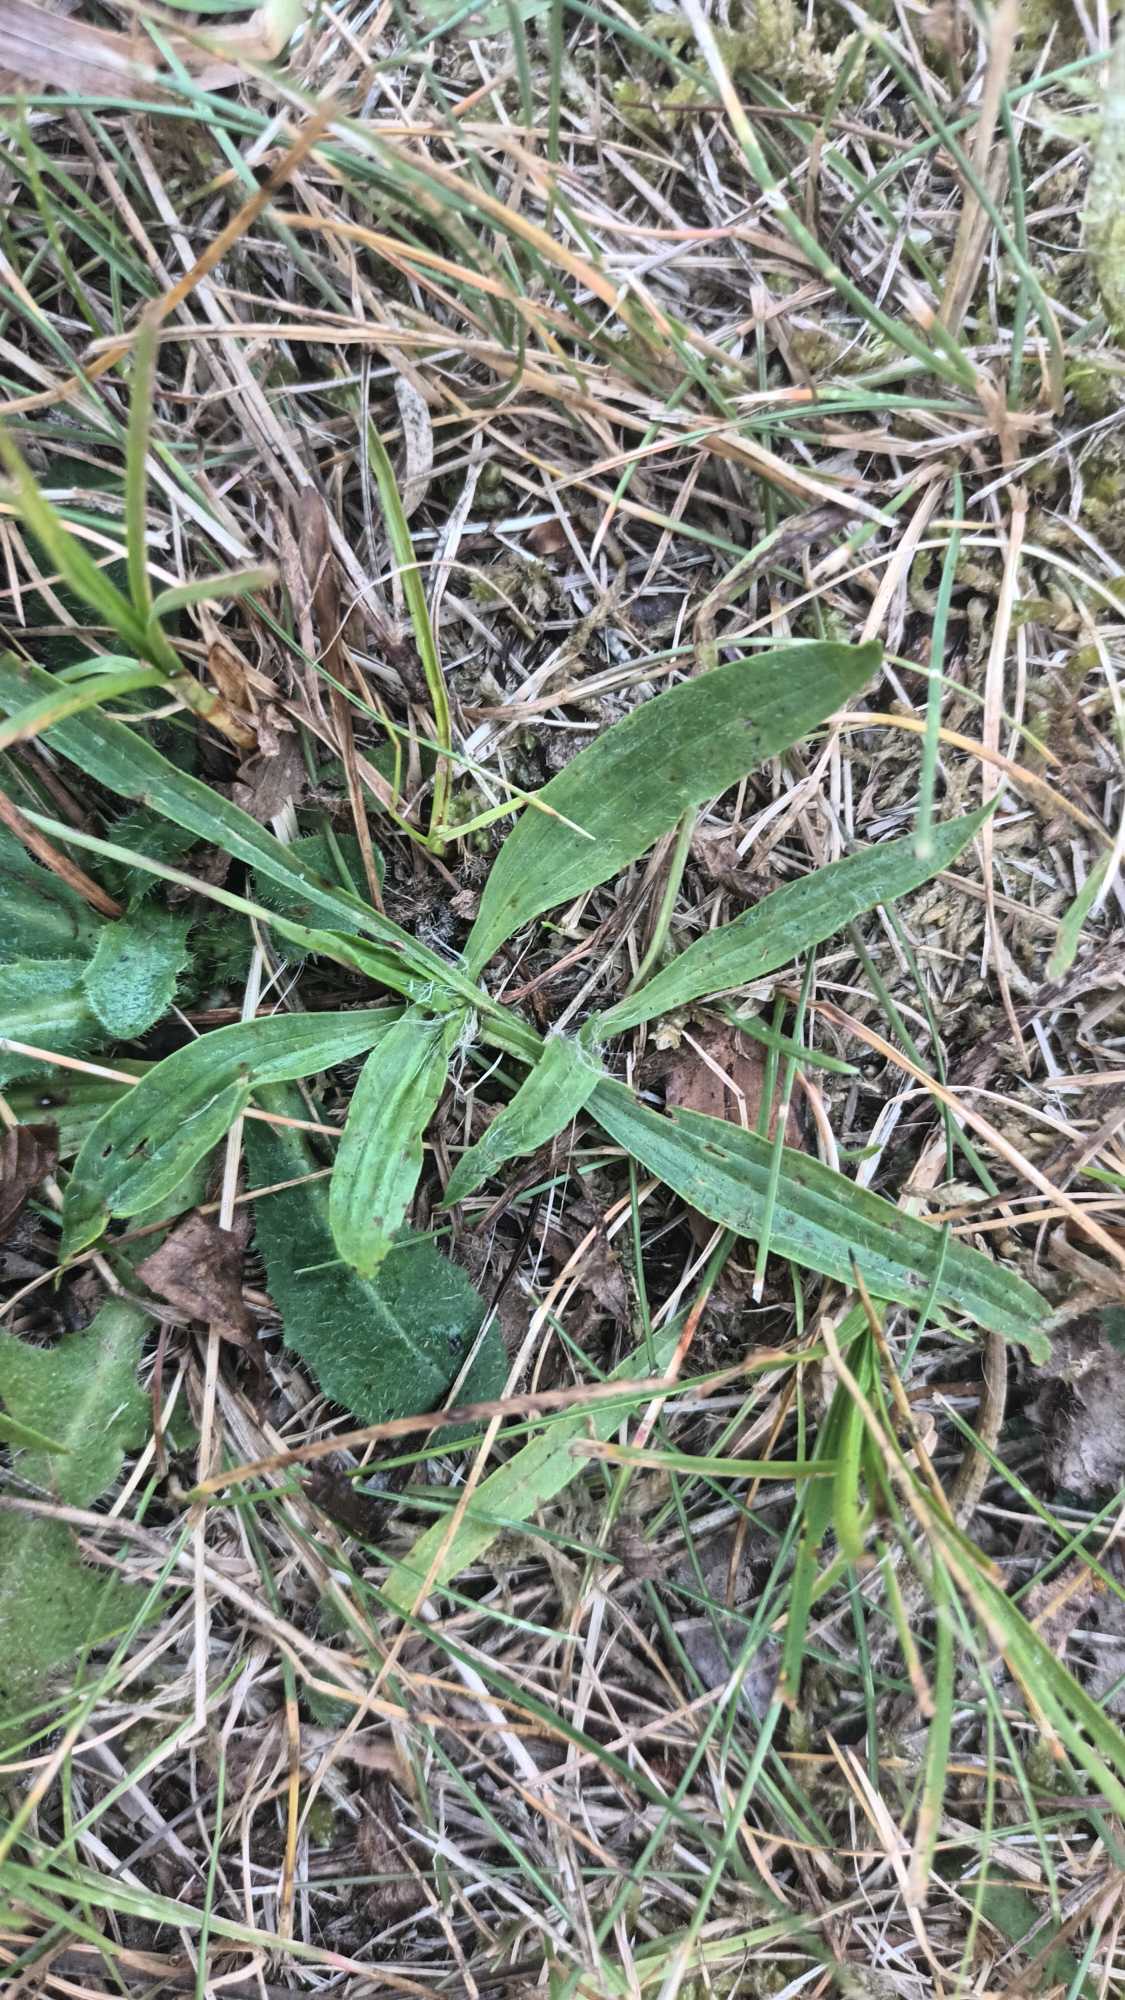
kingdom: Plantae
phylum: Tracheophyta
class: Magnoliopsida
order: Lamiales
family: Plantaginaceae
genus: Plantago
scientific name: Plantago lanceolata
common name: Lancet-vejbred
